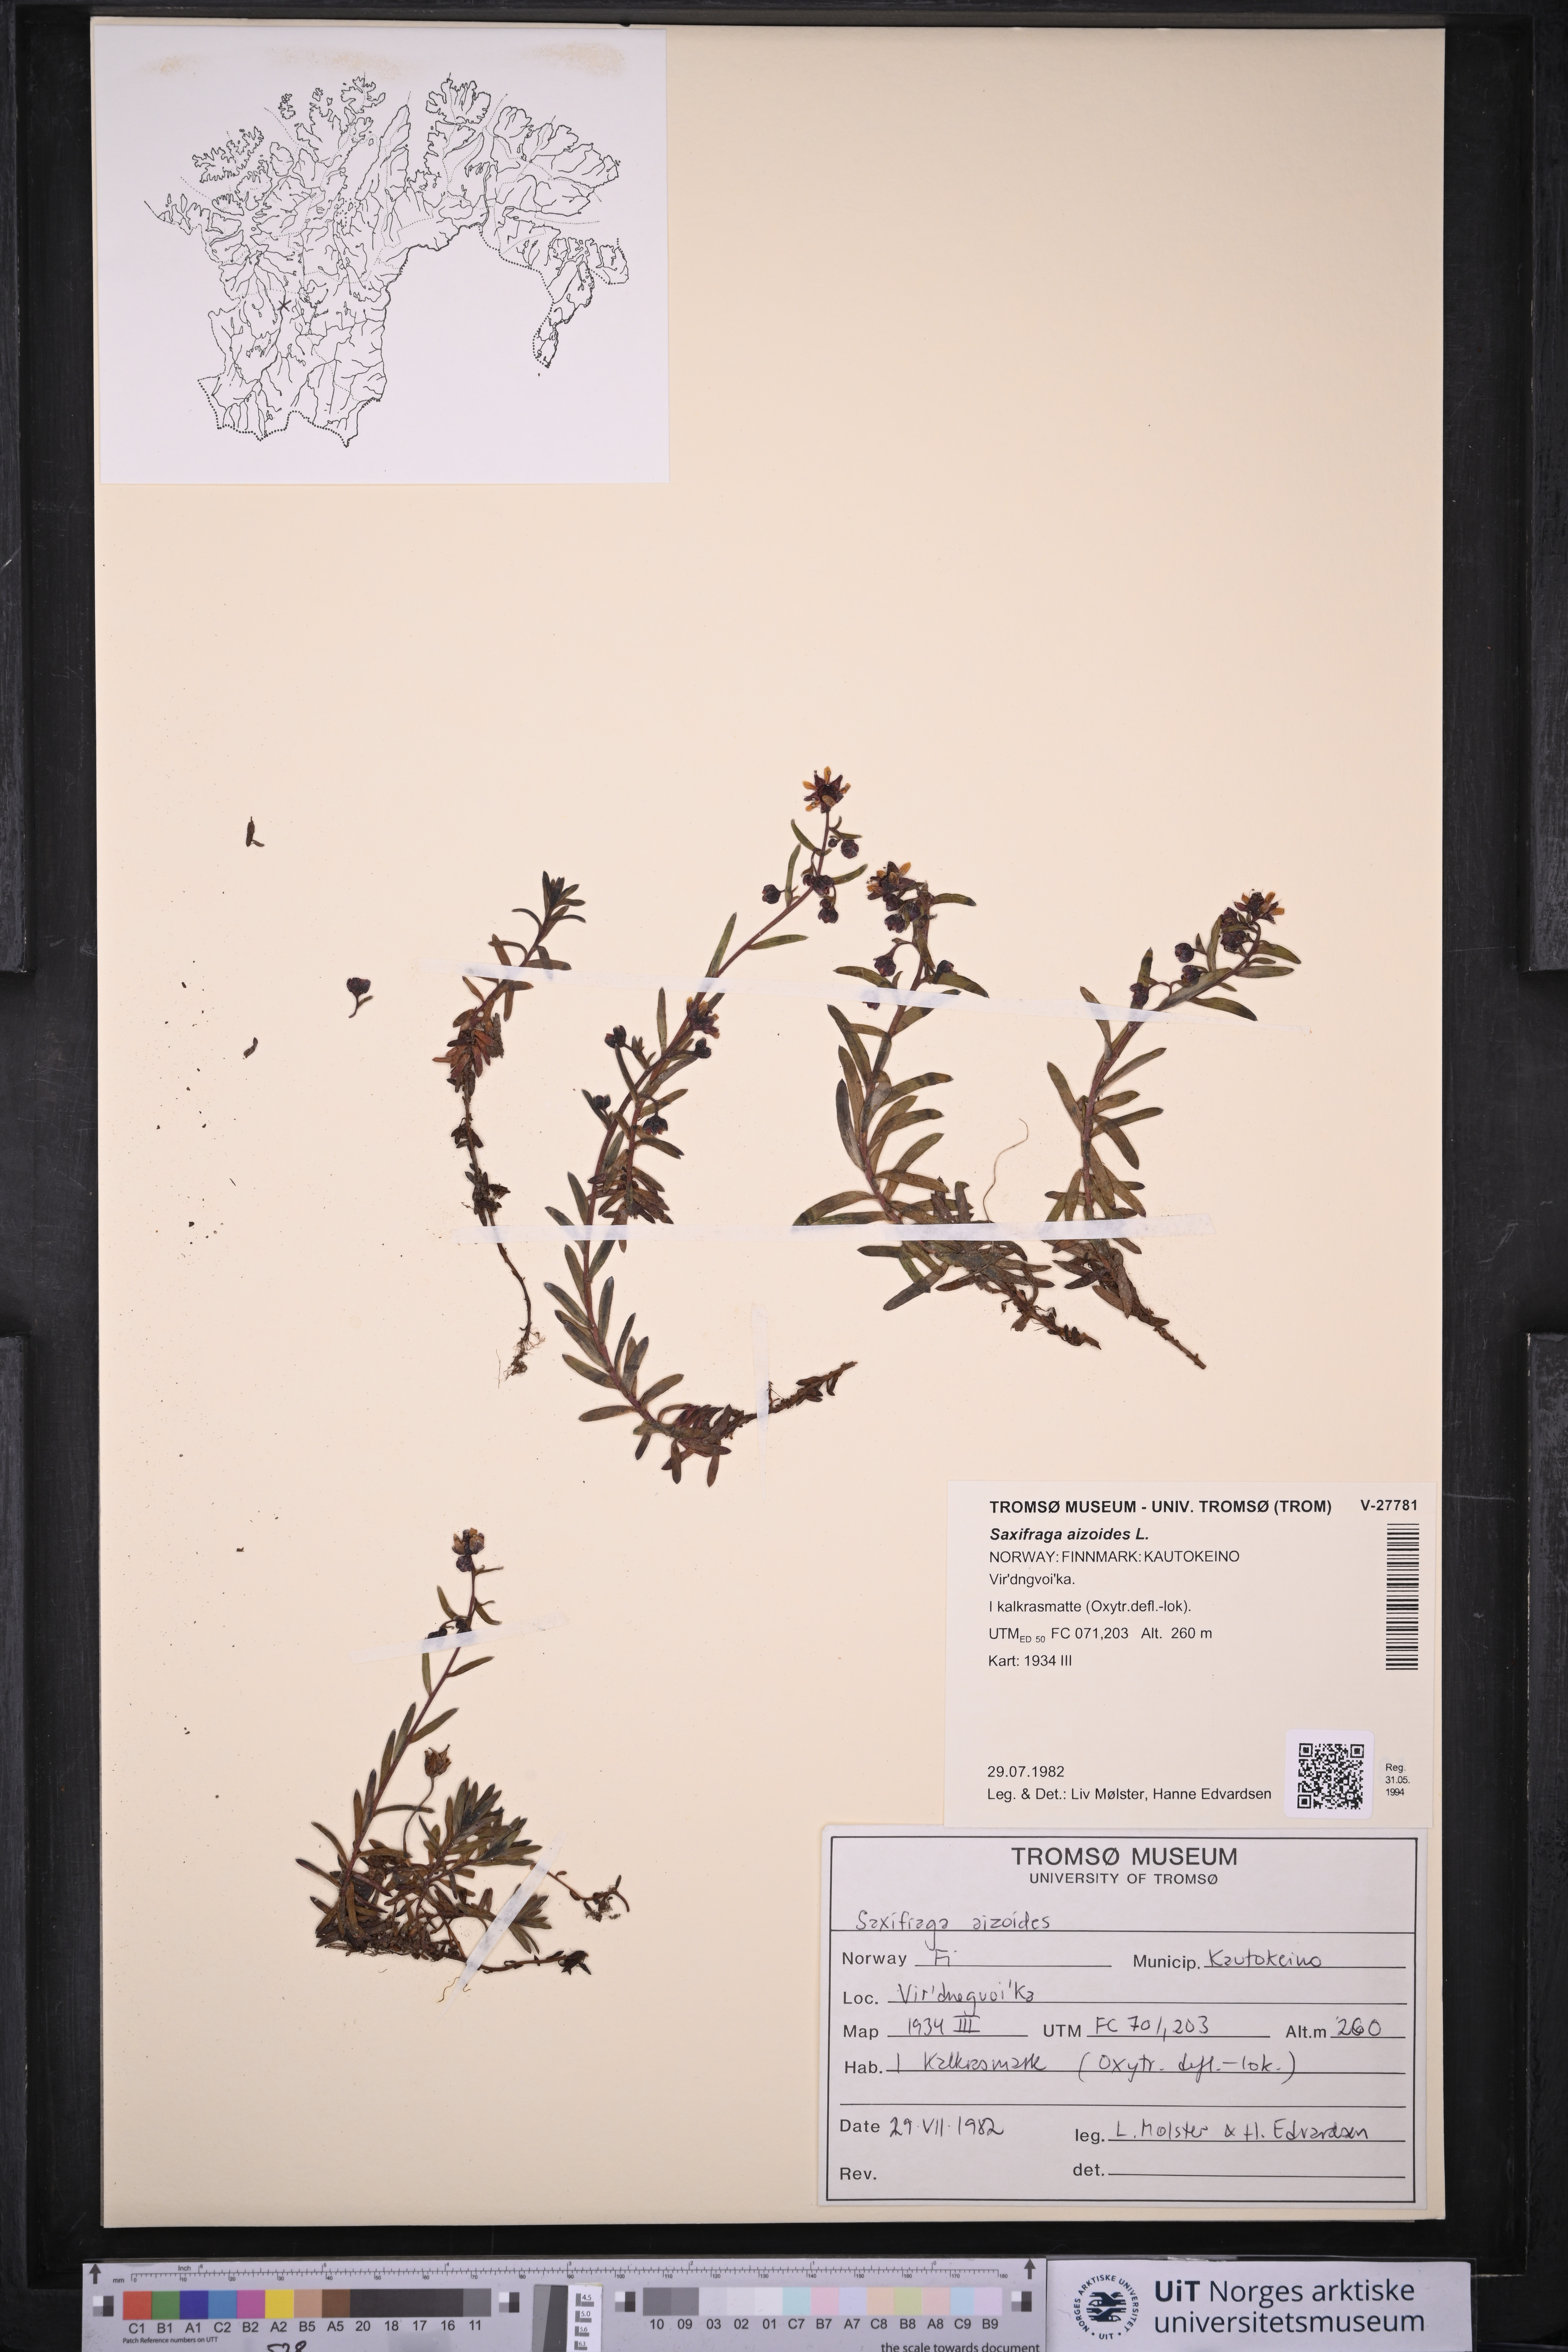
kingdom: Plantae
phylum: Tracheophyta
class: Magnoliopsida
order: Saxifragales
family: Saxifragaceae
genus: Saxifraga
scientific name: Saxifraga aizoides
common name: Yellow mountain saxifrage
